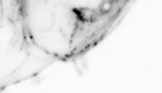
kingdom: Animalia
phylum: Chaetognatha
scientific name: Chaetognatha
